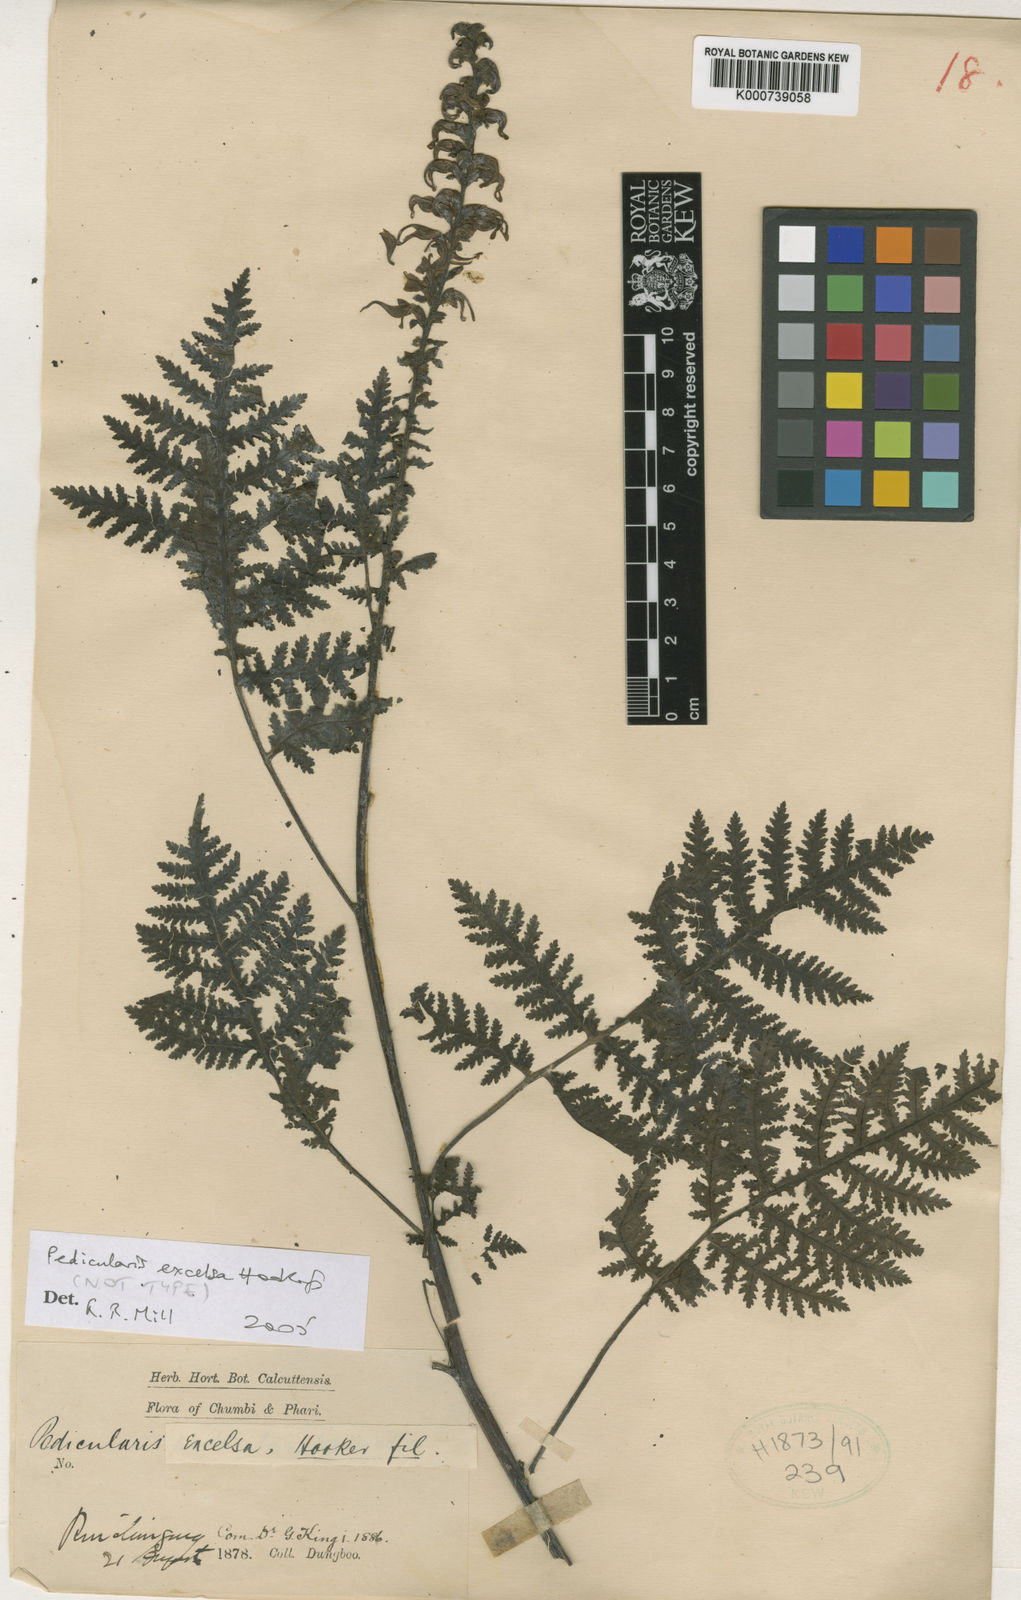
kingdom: Plantae
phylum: Tracheophyta
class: Magnoliopsida
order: Lamiales
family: Orobanchaceae
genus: Pedicularis
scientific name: Pedicularis excelsa
